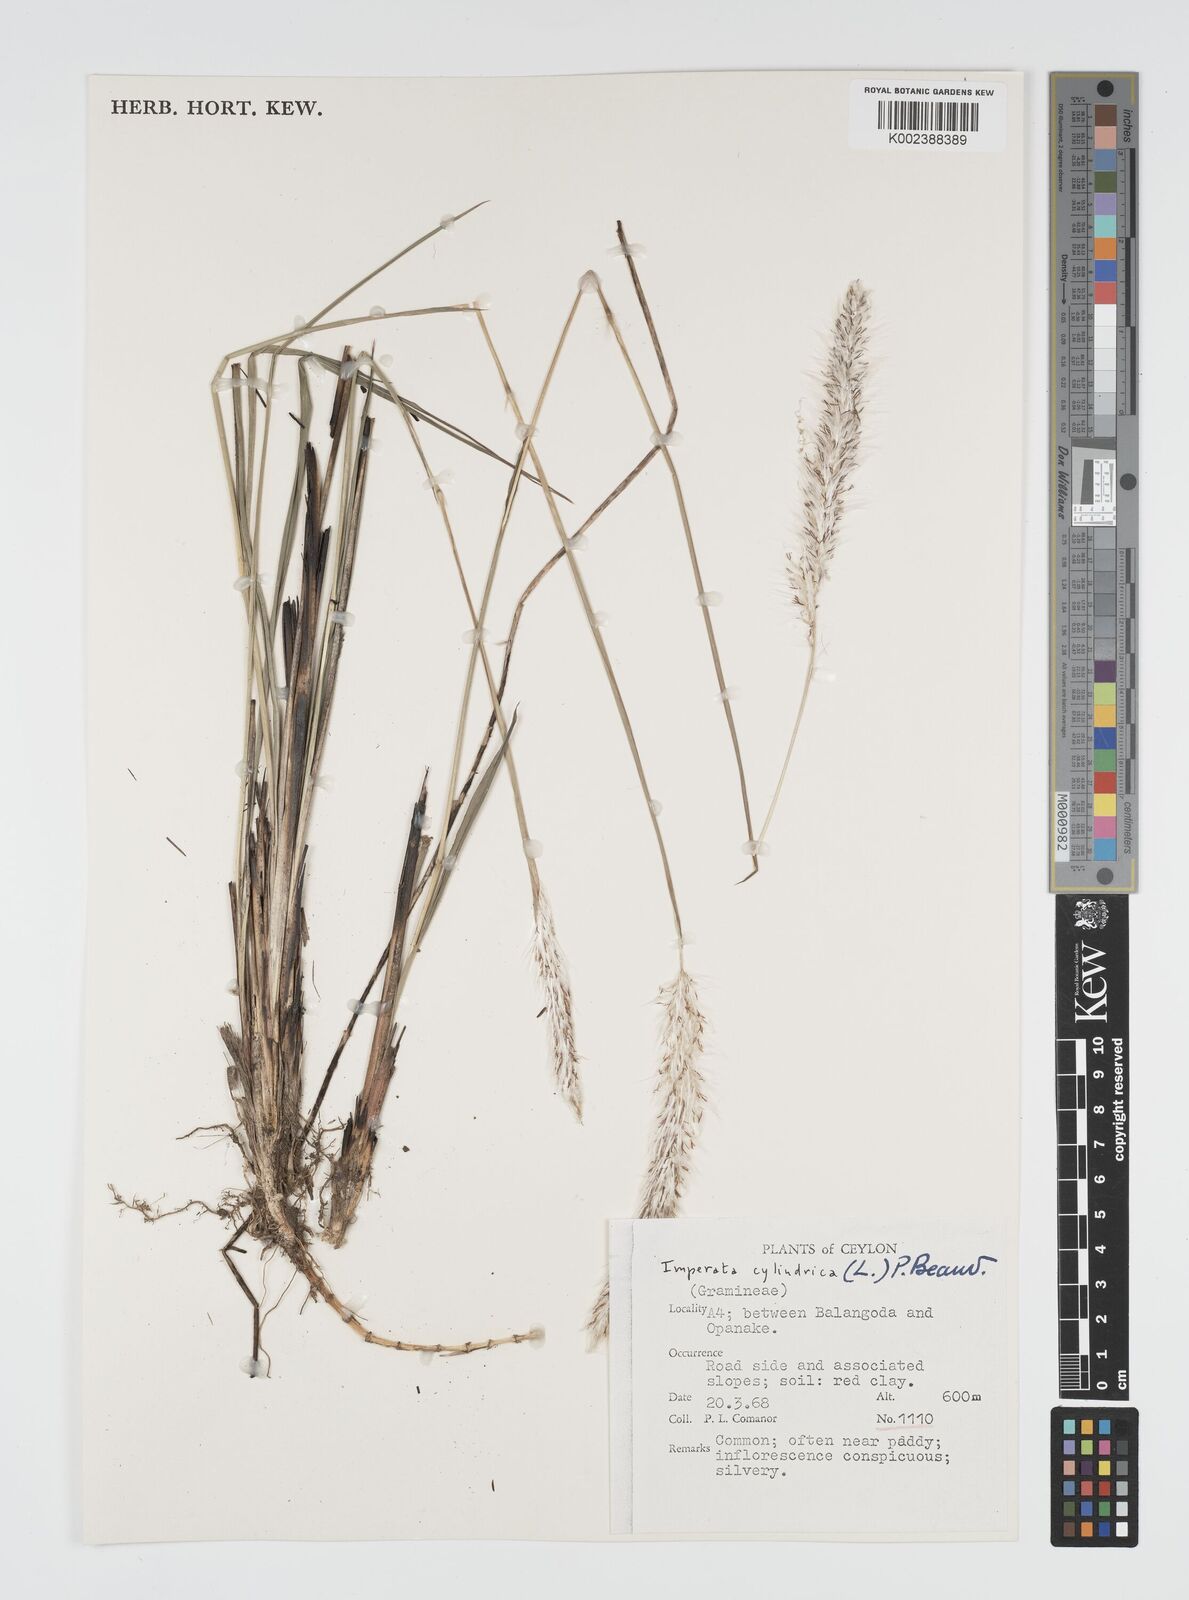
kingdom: Plantae
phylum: Tracheophyta
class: Liliopsida
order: Poales
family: Poaceae
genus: Imperata
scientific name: Imperata cylindrica
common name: Cogongrass
